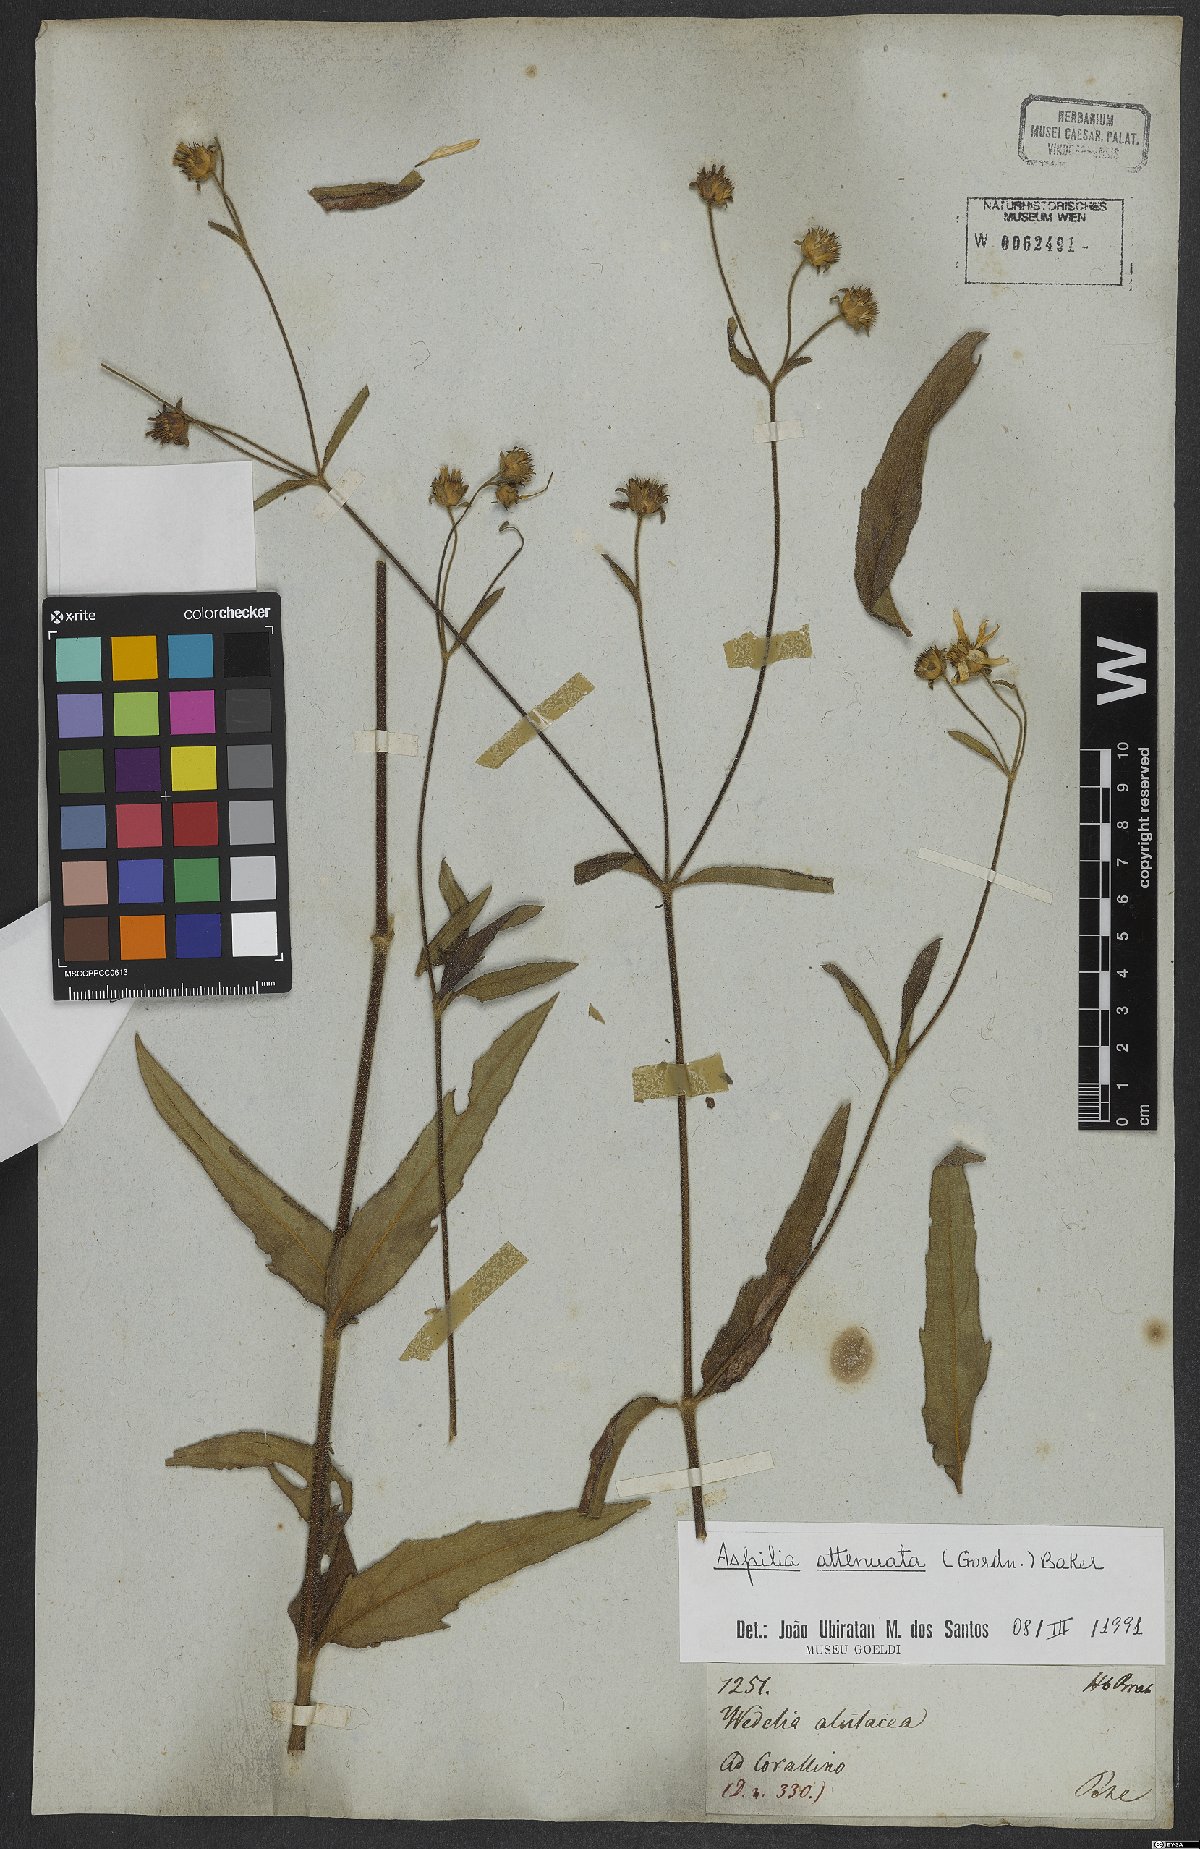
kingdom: Plantae
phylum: Tracheophyta
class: Magnoliopsida
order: Asterales
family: Asteraceae
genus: Wedelia
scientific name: Wedelia attenuata
